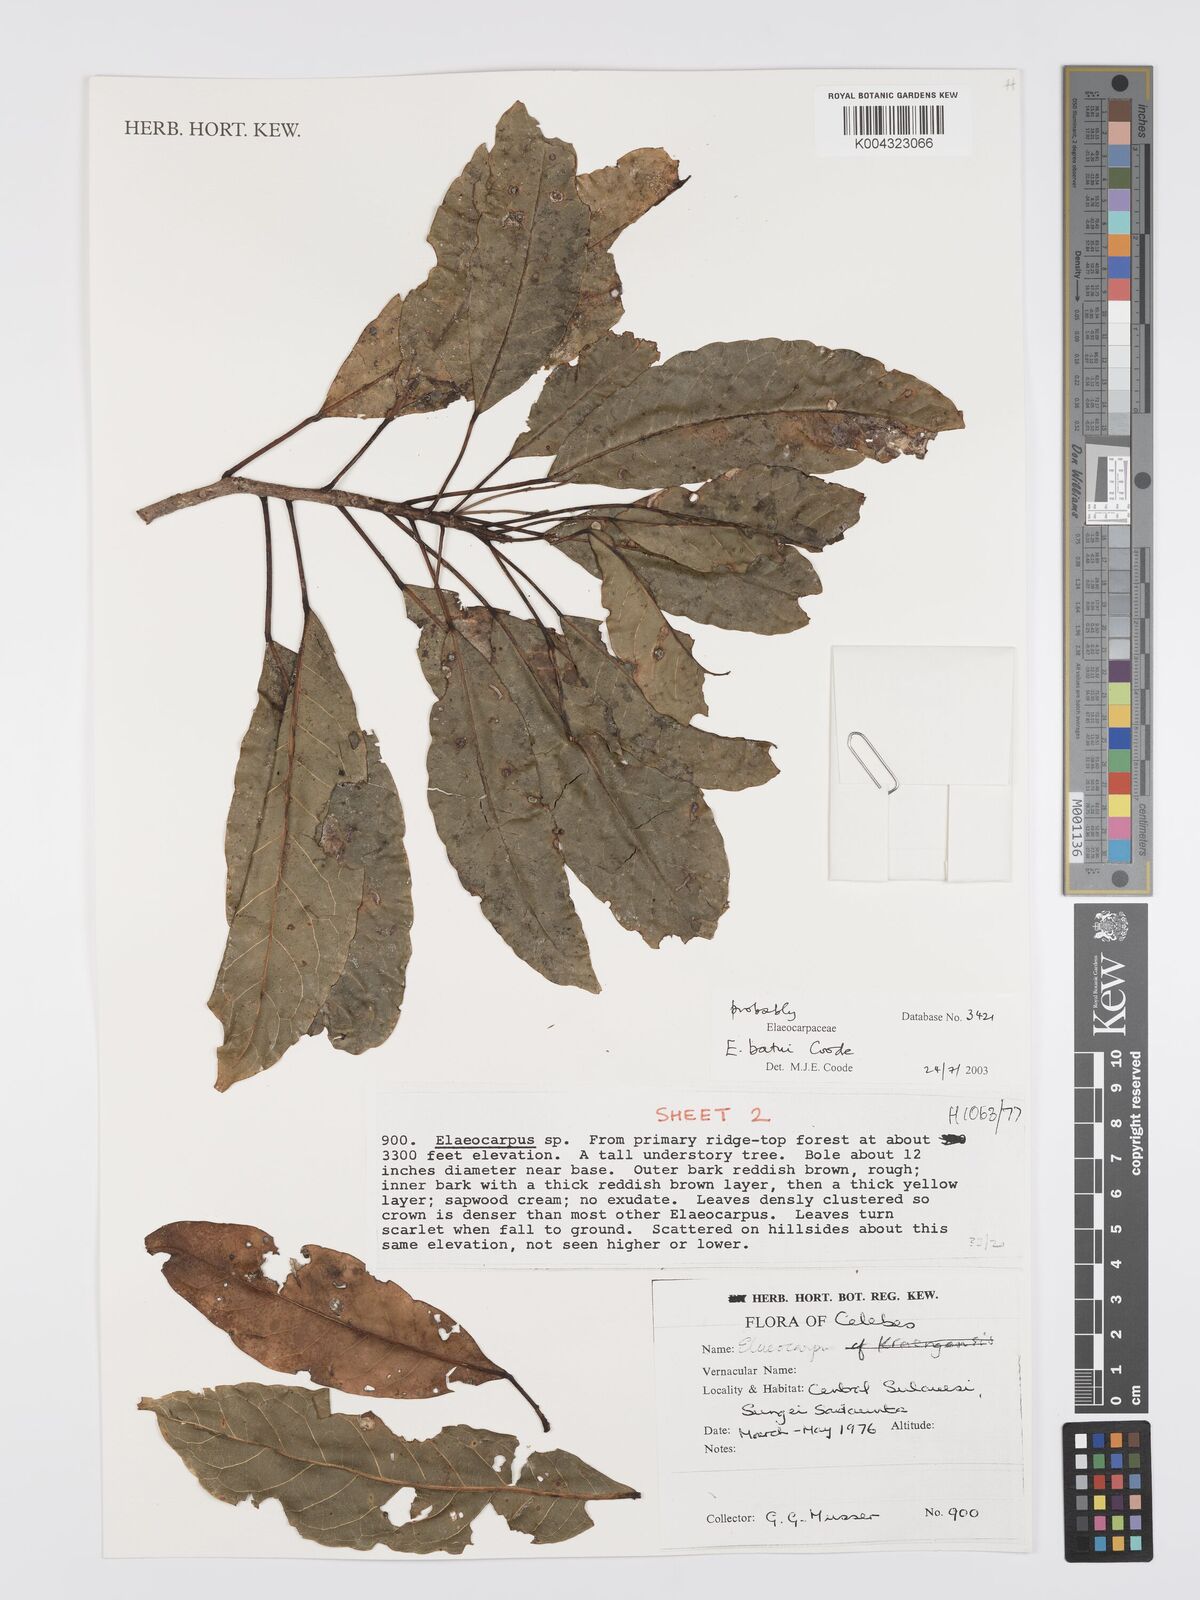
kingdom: Plantae
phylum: Tracheophyta
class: Magnoliopsida
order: Oxalidales
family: Elaeocarpaceae
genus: Elaeocarpus
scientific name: Elaeocarpus batui
